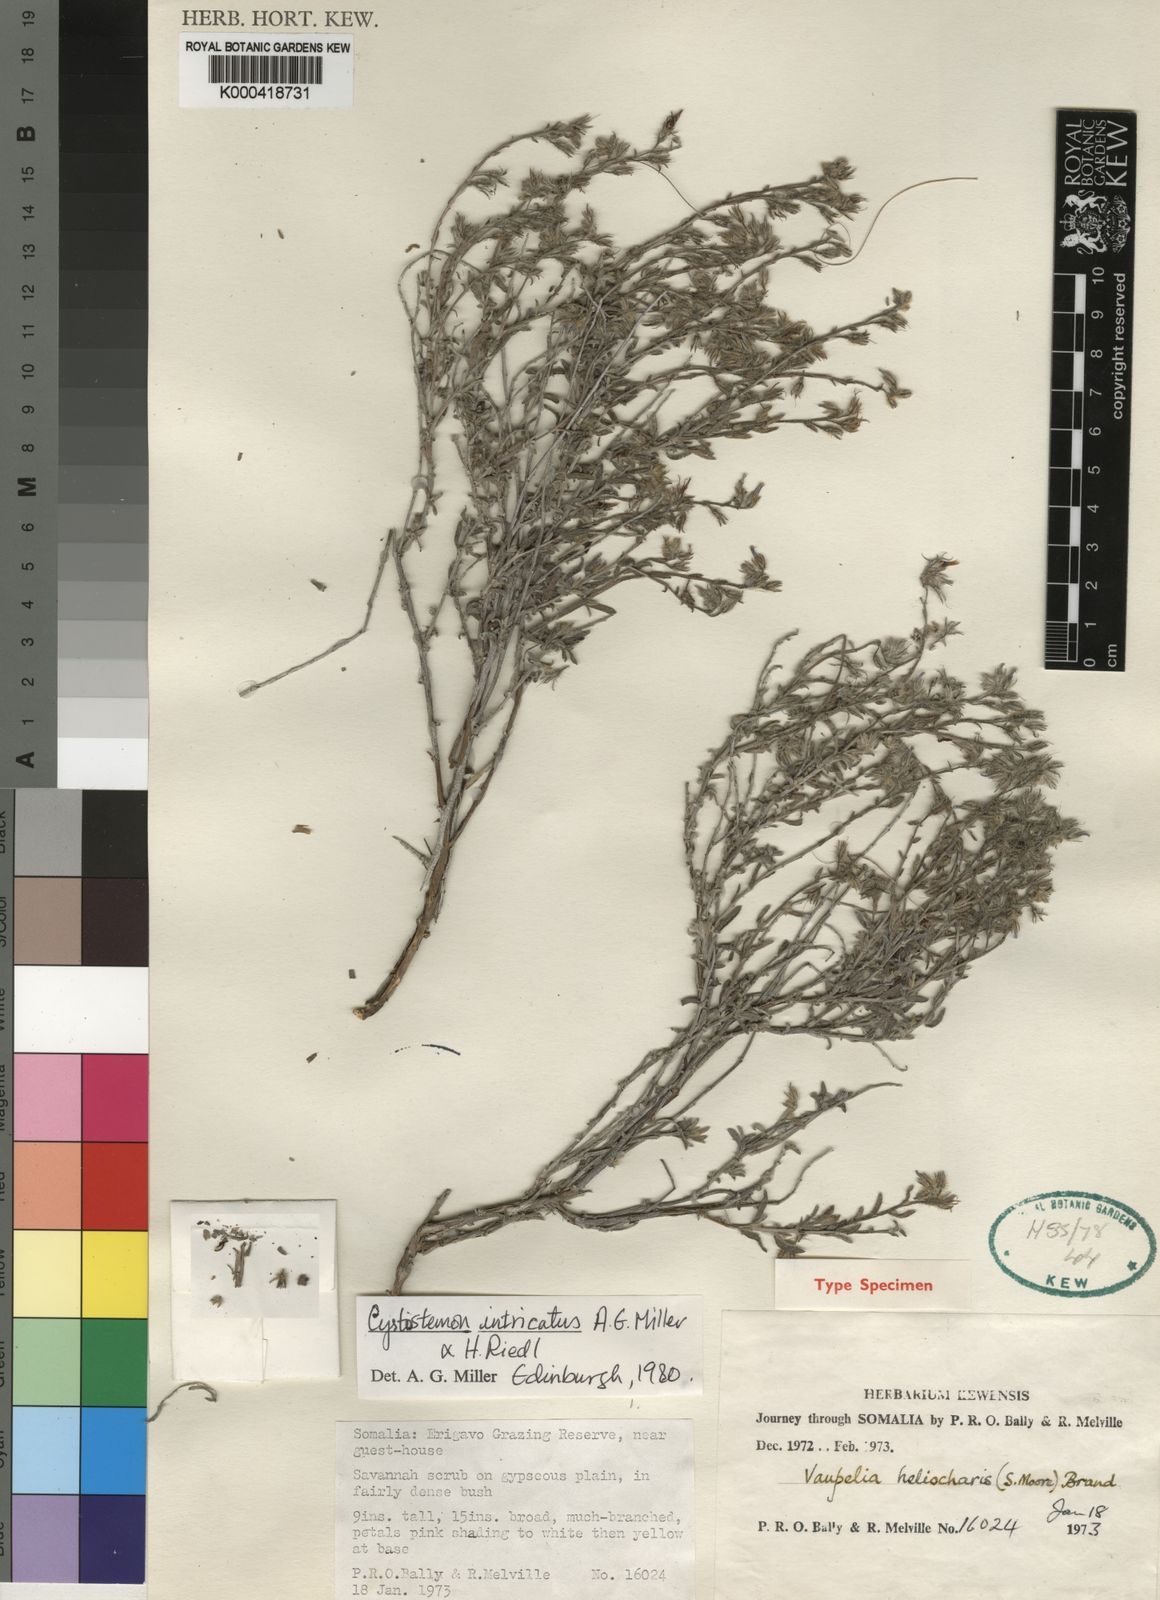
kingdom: Plantae
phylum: Tracheophyta
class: Magnoliopsida
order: Boraginales
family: Boraginaceae
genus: Cystostemon
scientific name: Cystostemon intricatus
